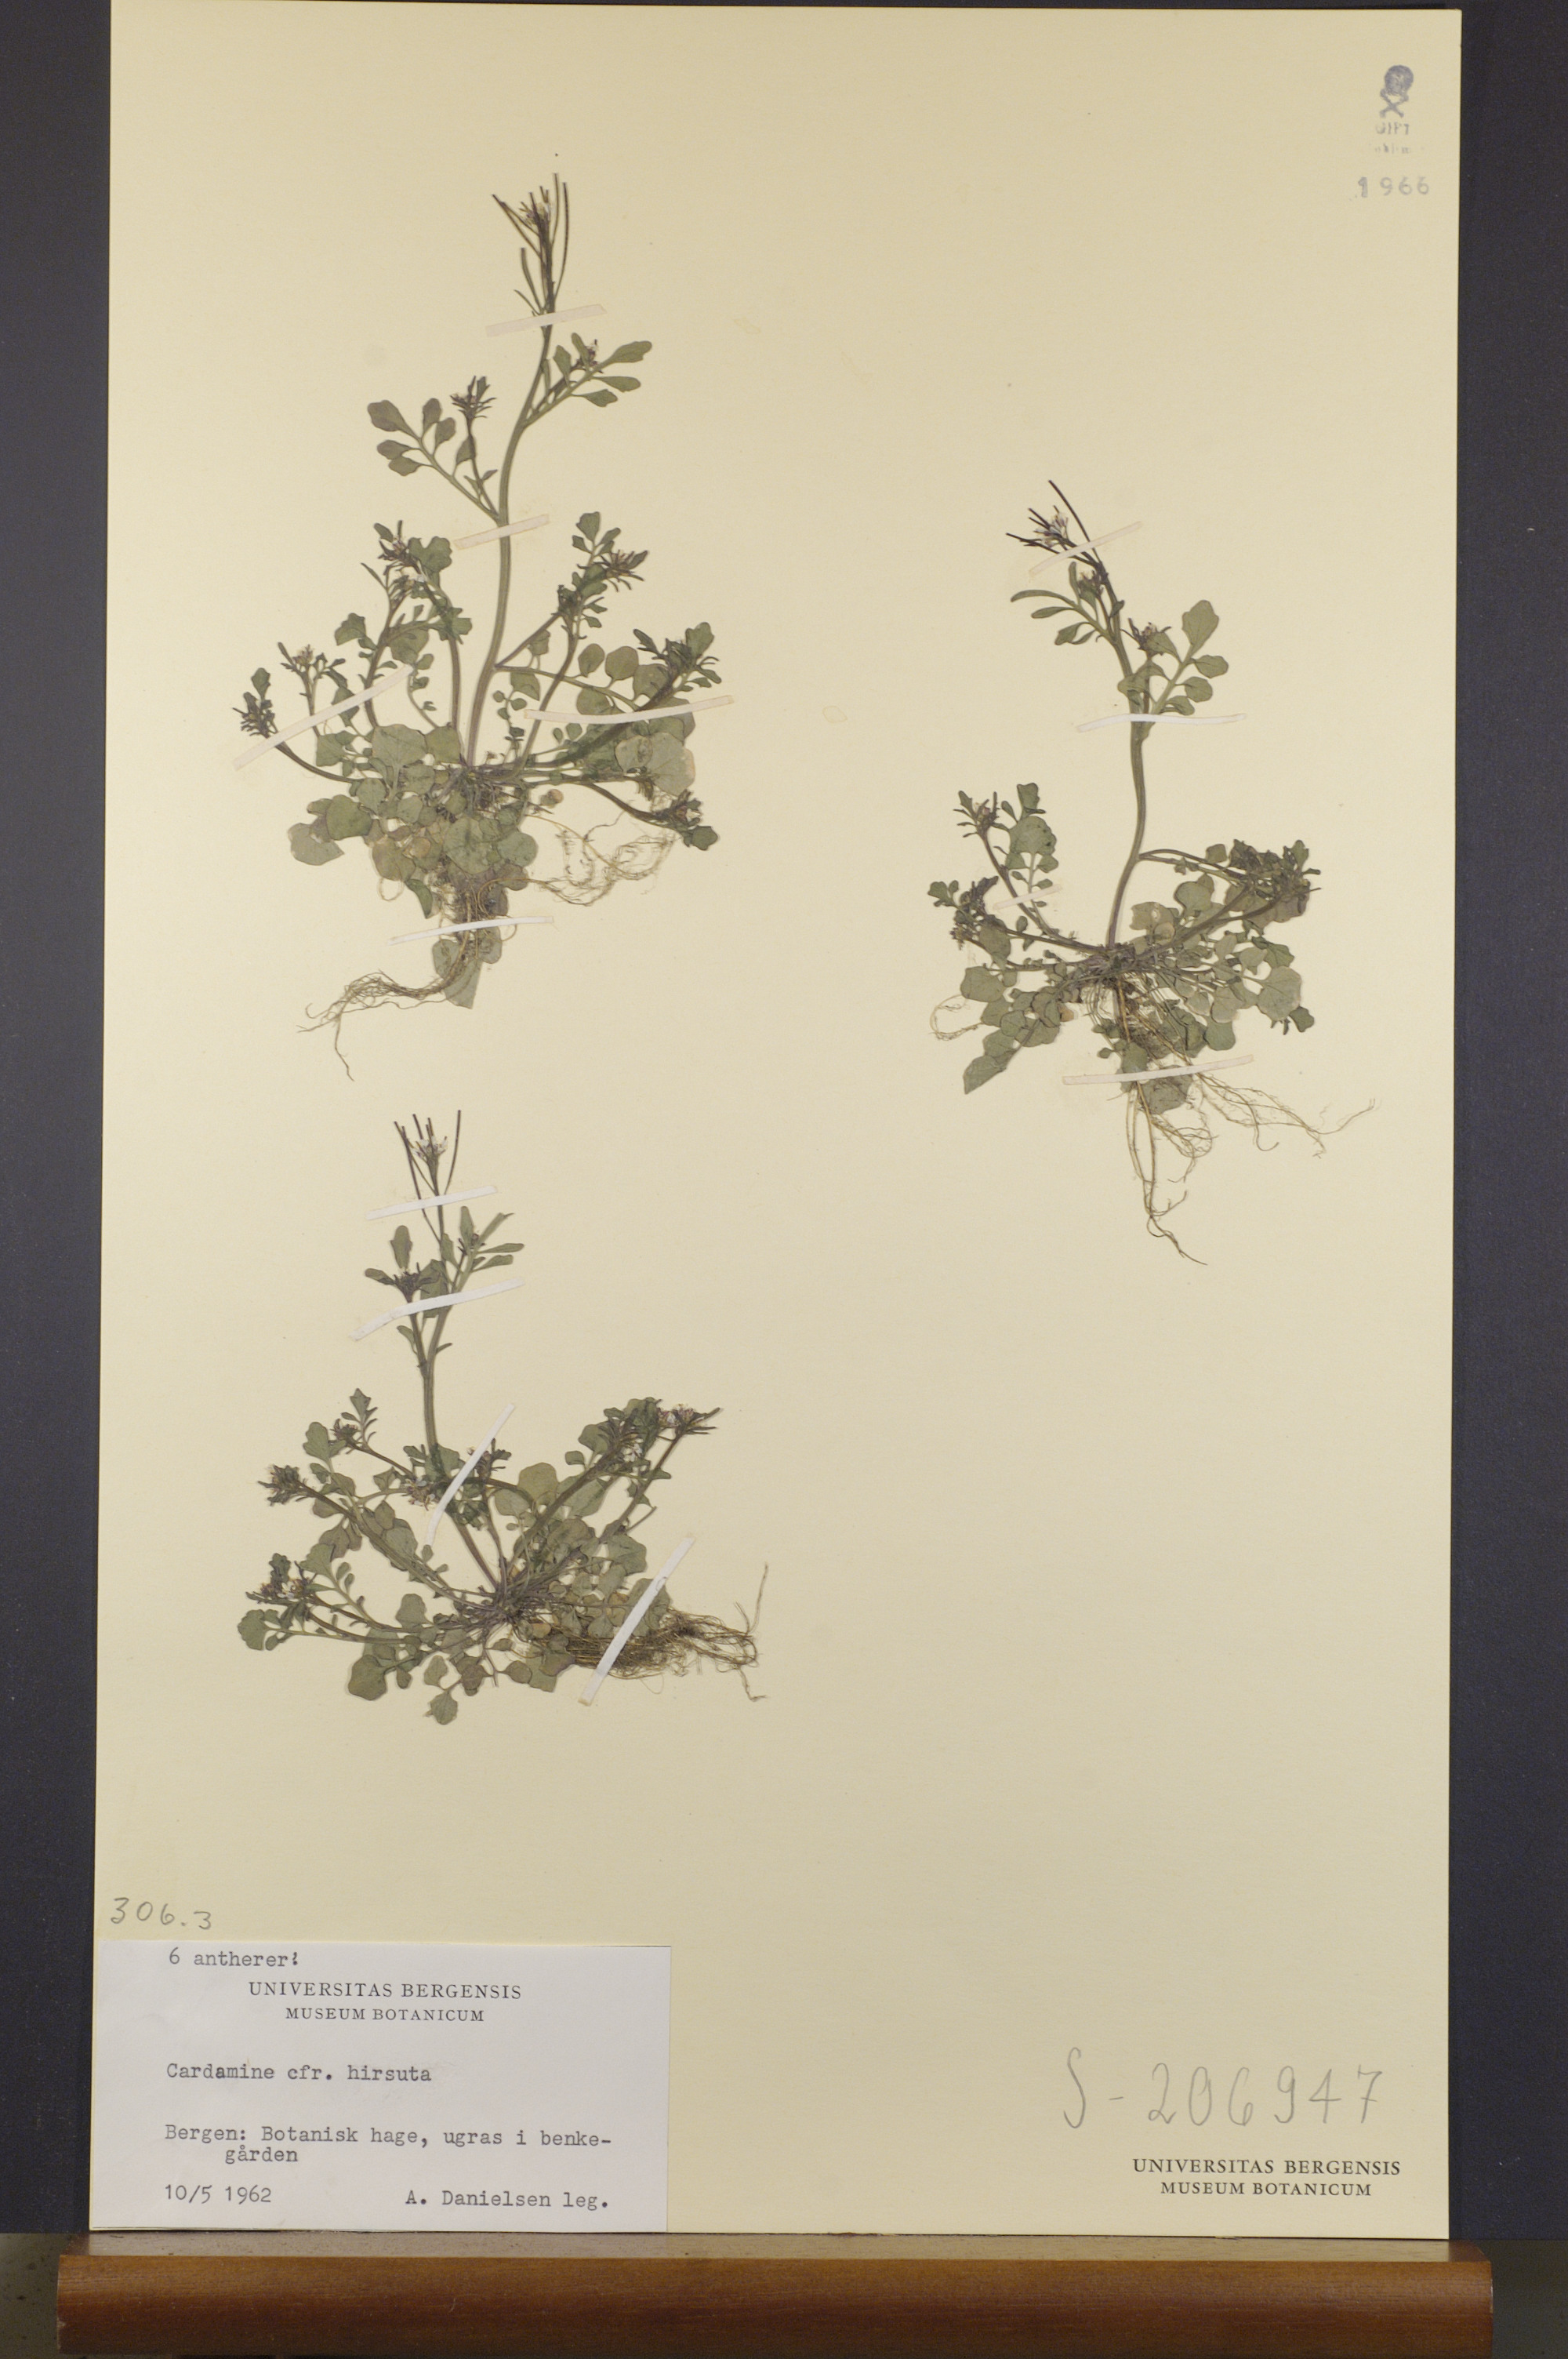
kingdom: Plantae
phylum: Tracheophyta
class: Magnoliopsida
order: Brassicales
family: Brassicaceae
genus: Cardamine
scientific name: Cardamine hirsuta
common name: Hairy bittercress
